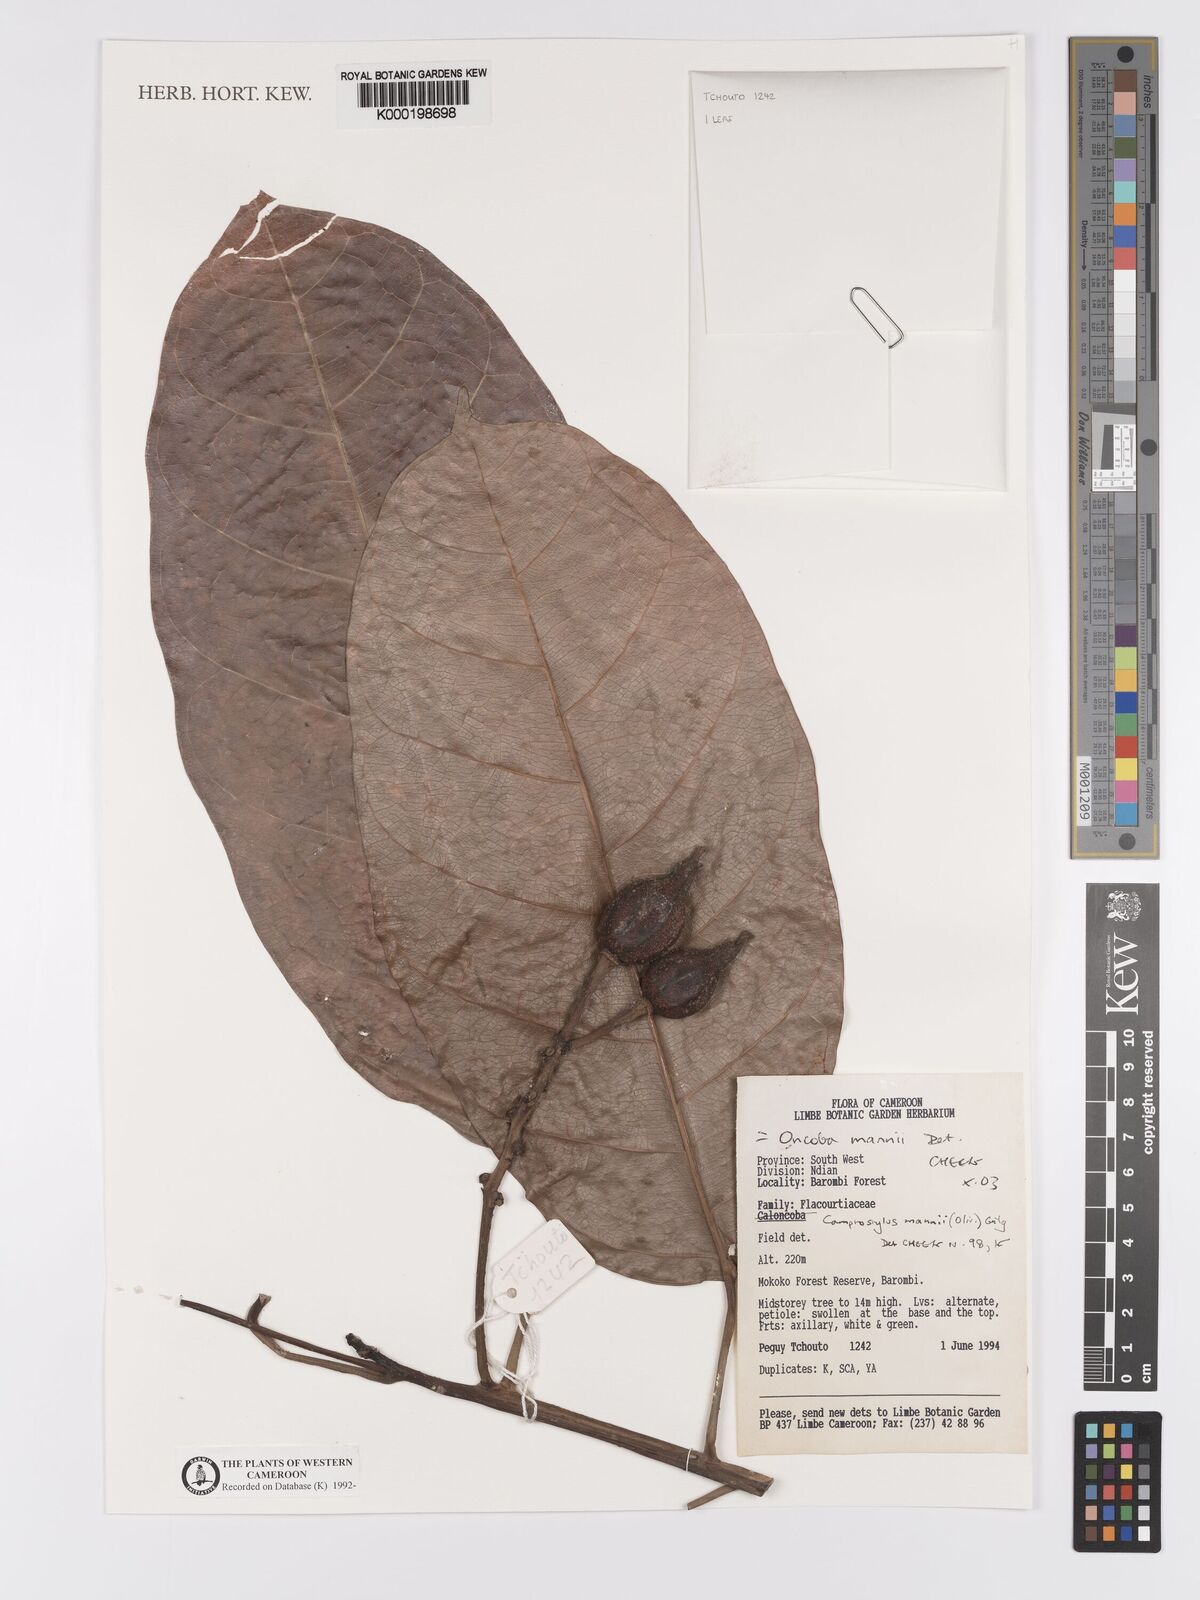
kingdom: Plantae
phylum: Tracheophyta
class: Magnoliopsida
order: Malpighiales
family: Achariaceae
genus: Camptostylus
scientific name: Camptostylus mannii
